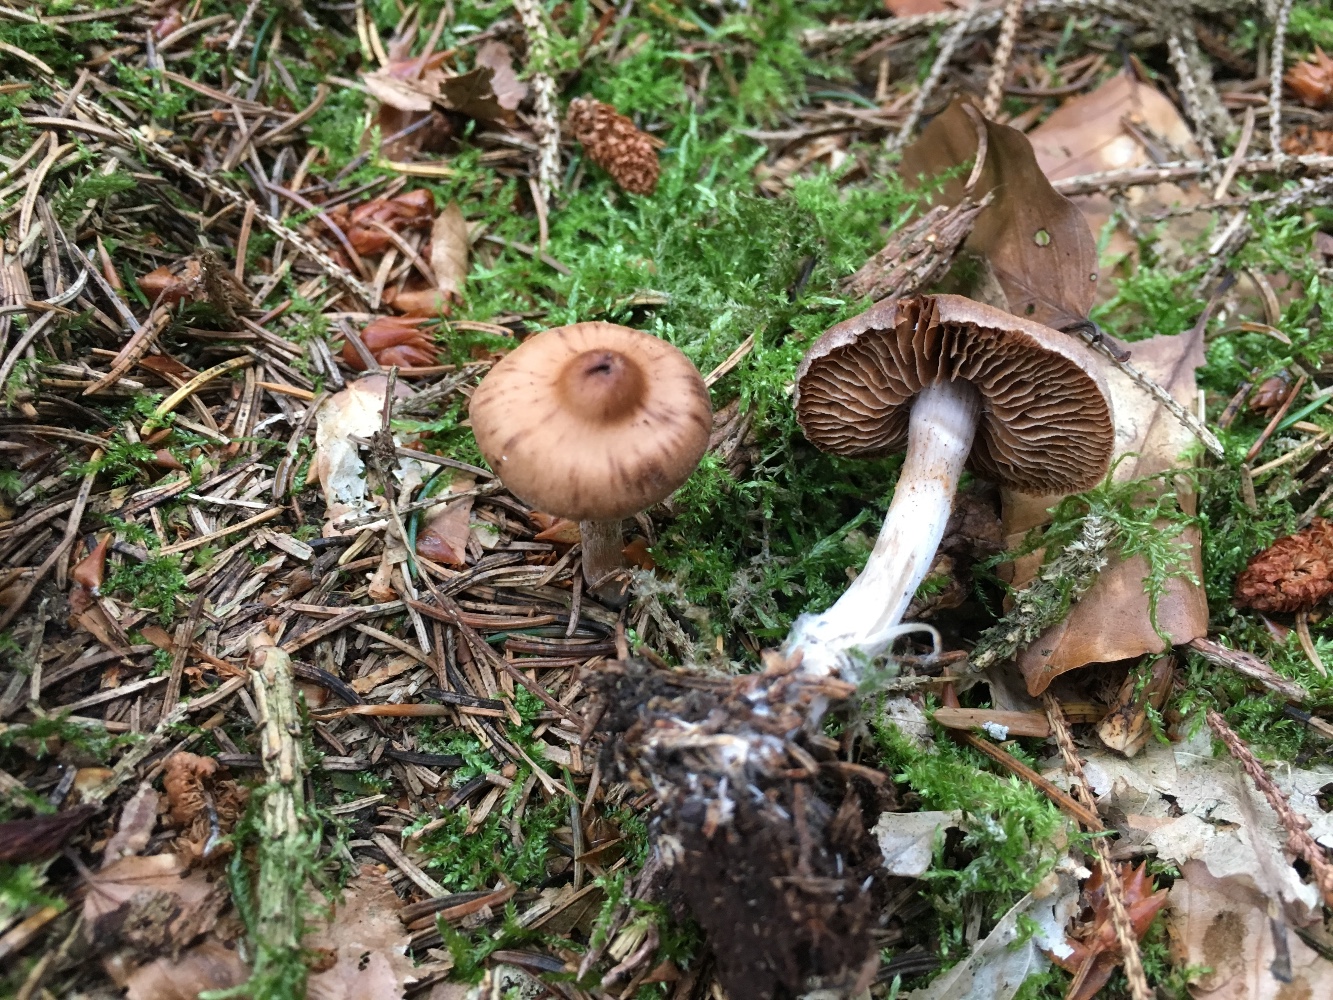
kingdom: Fungi
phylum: Basidiomycota
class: Agaricomycetes
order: Agaricales
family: Cortinariaceae
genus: Cortinarius
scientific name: Cortinarius
